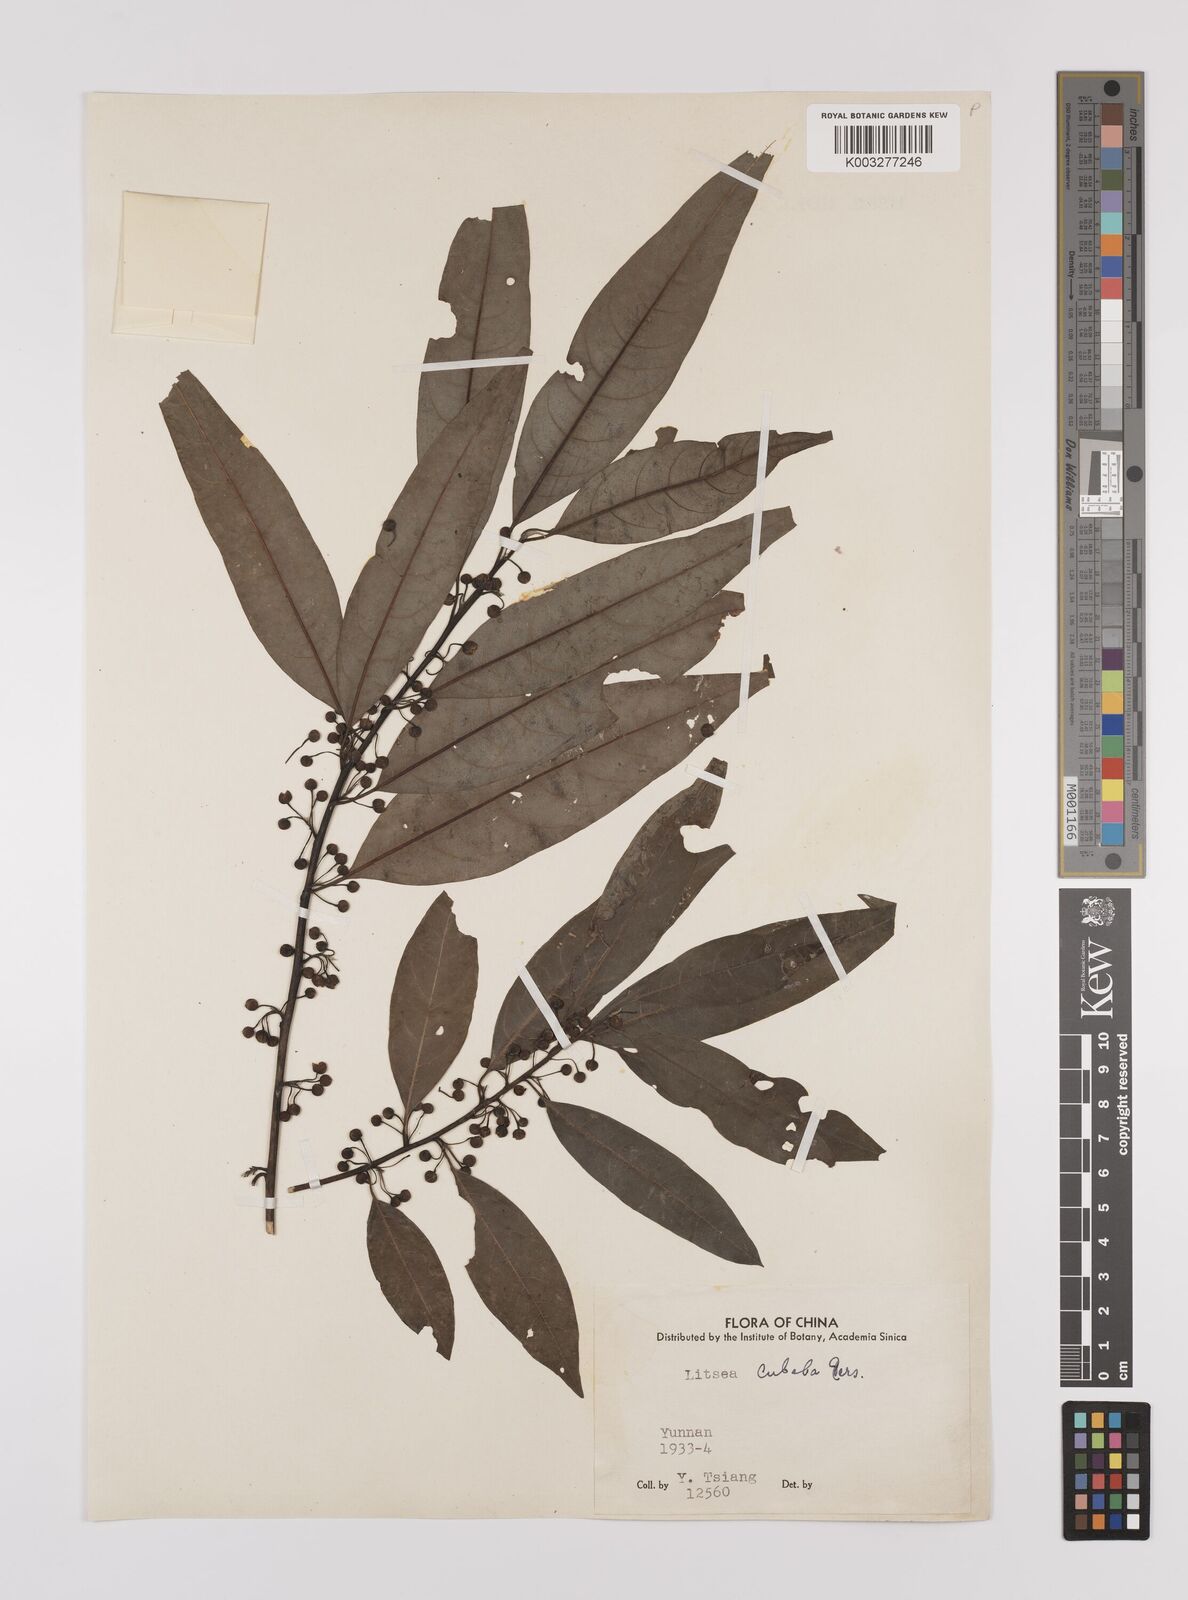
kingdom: Plantae
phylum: Tracheophyta
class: Magnoliopsida
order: Laurales
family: Lauraceae
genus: Litsea
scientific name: Litsea cubeba
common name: Mountain-pepper
